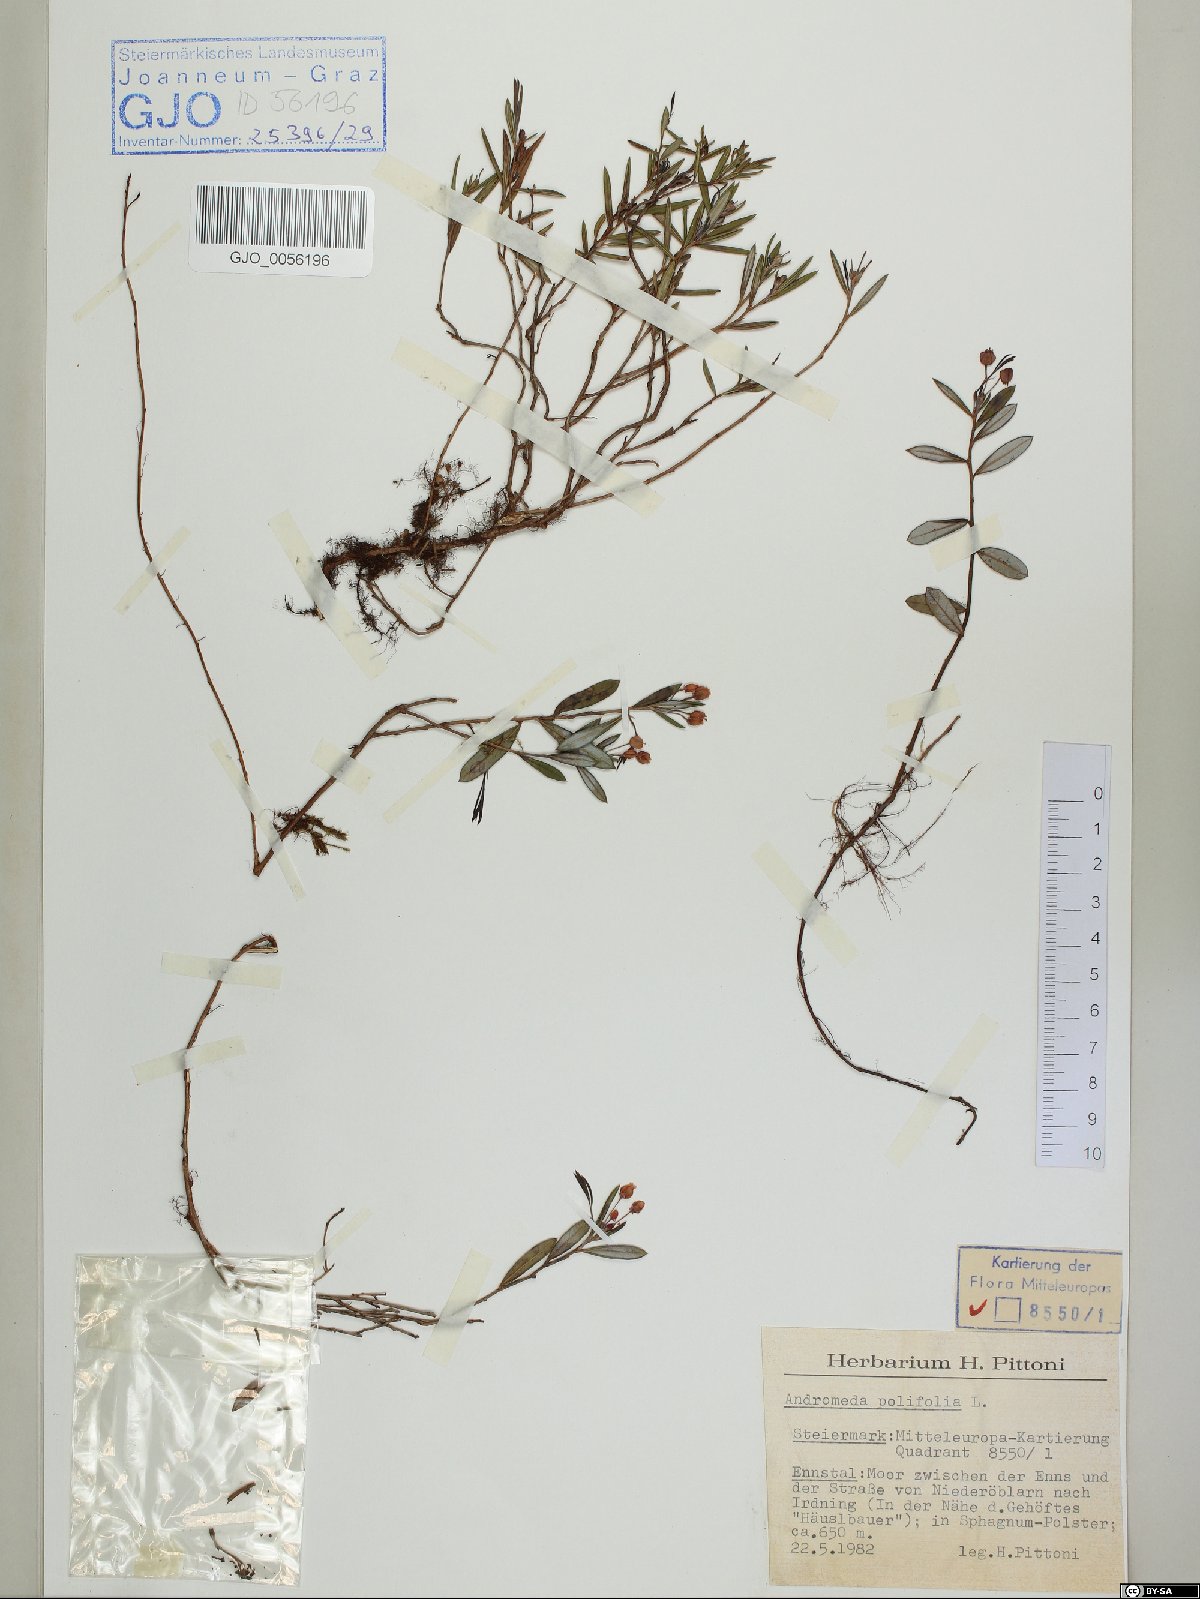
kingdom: Plantae
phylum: Tracheophyta
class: Magnoliopsida
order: Ericales
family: Ericaceae
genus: Andromeda
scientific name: Andromeda polifolia
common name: Bog-rosemary
